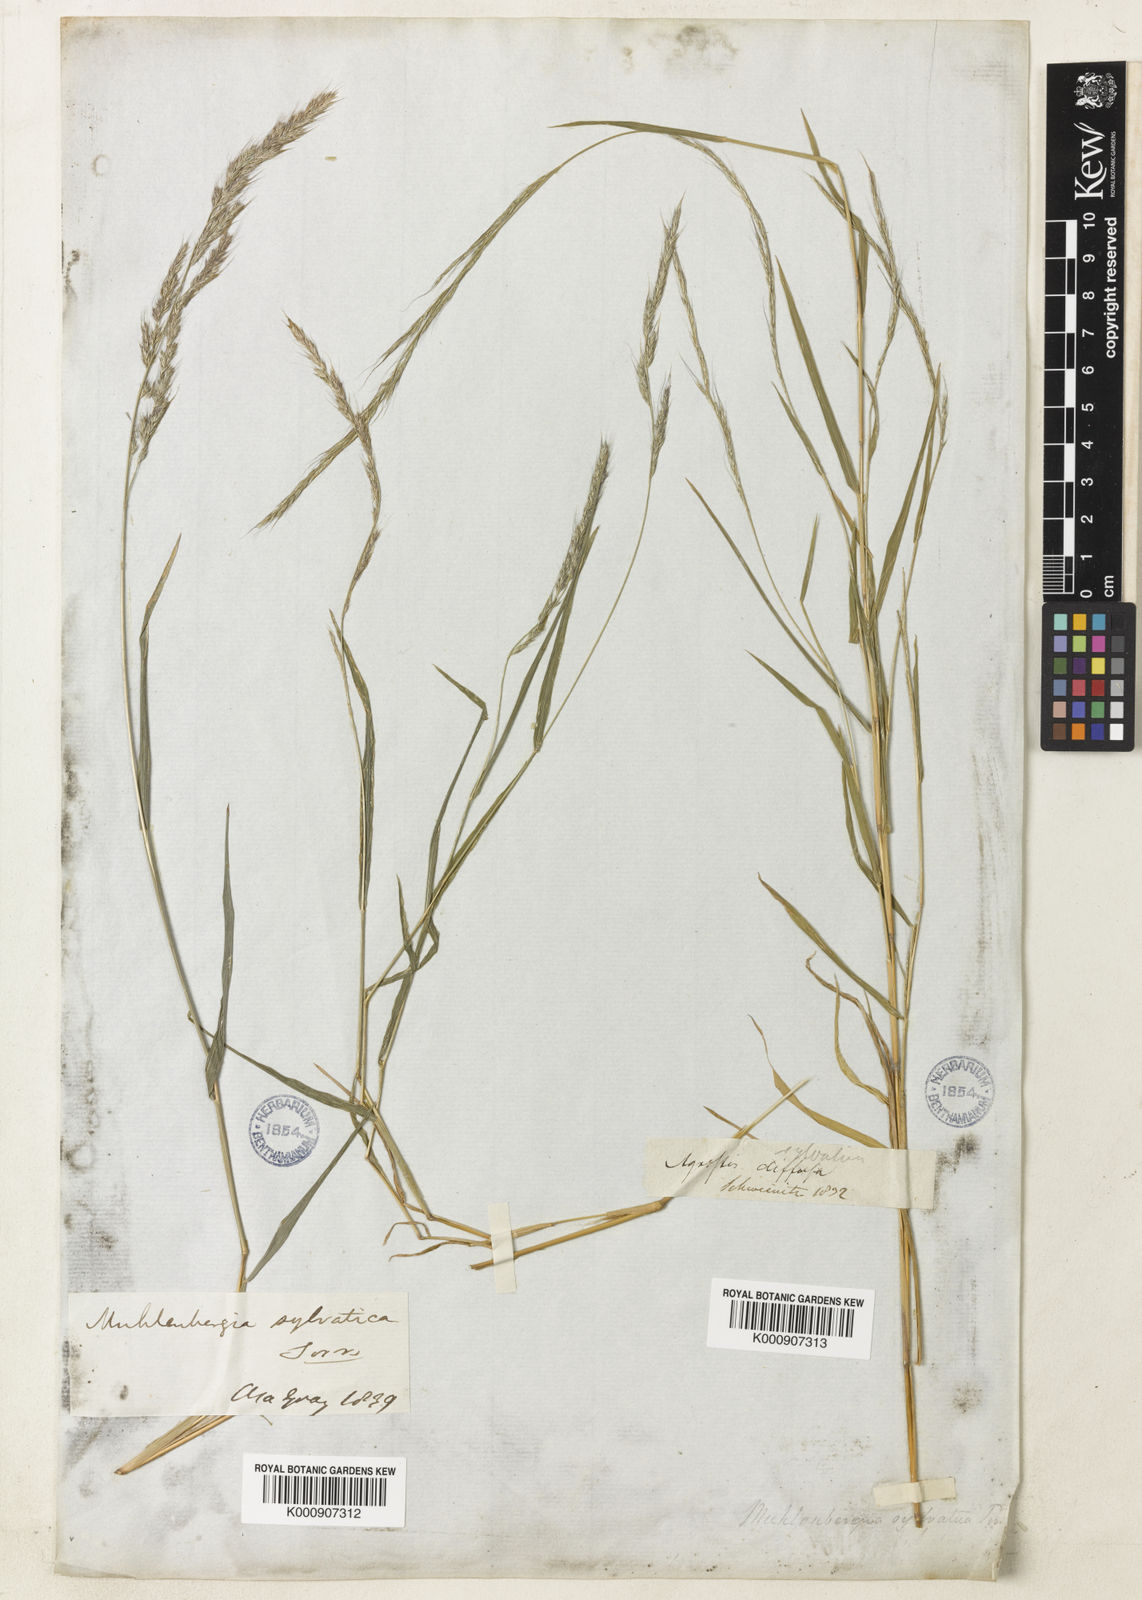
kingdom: Plantae
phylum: Tracheophyta
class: Liliopsida
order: Poales
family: Poaceae
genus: Muhlenbergia
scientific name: Muhlenbergia sylvatica
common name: Woodland muhly
